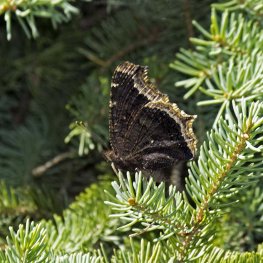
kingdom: Animalia
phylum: Arthropoda
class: Insecta
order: Lepidoptera
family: Nymphalidae
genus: Nymphalis
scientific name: Nymphalis antiopa
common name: Mourning Cloak
